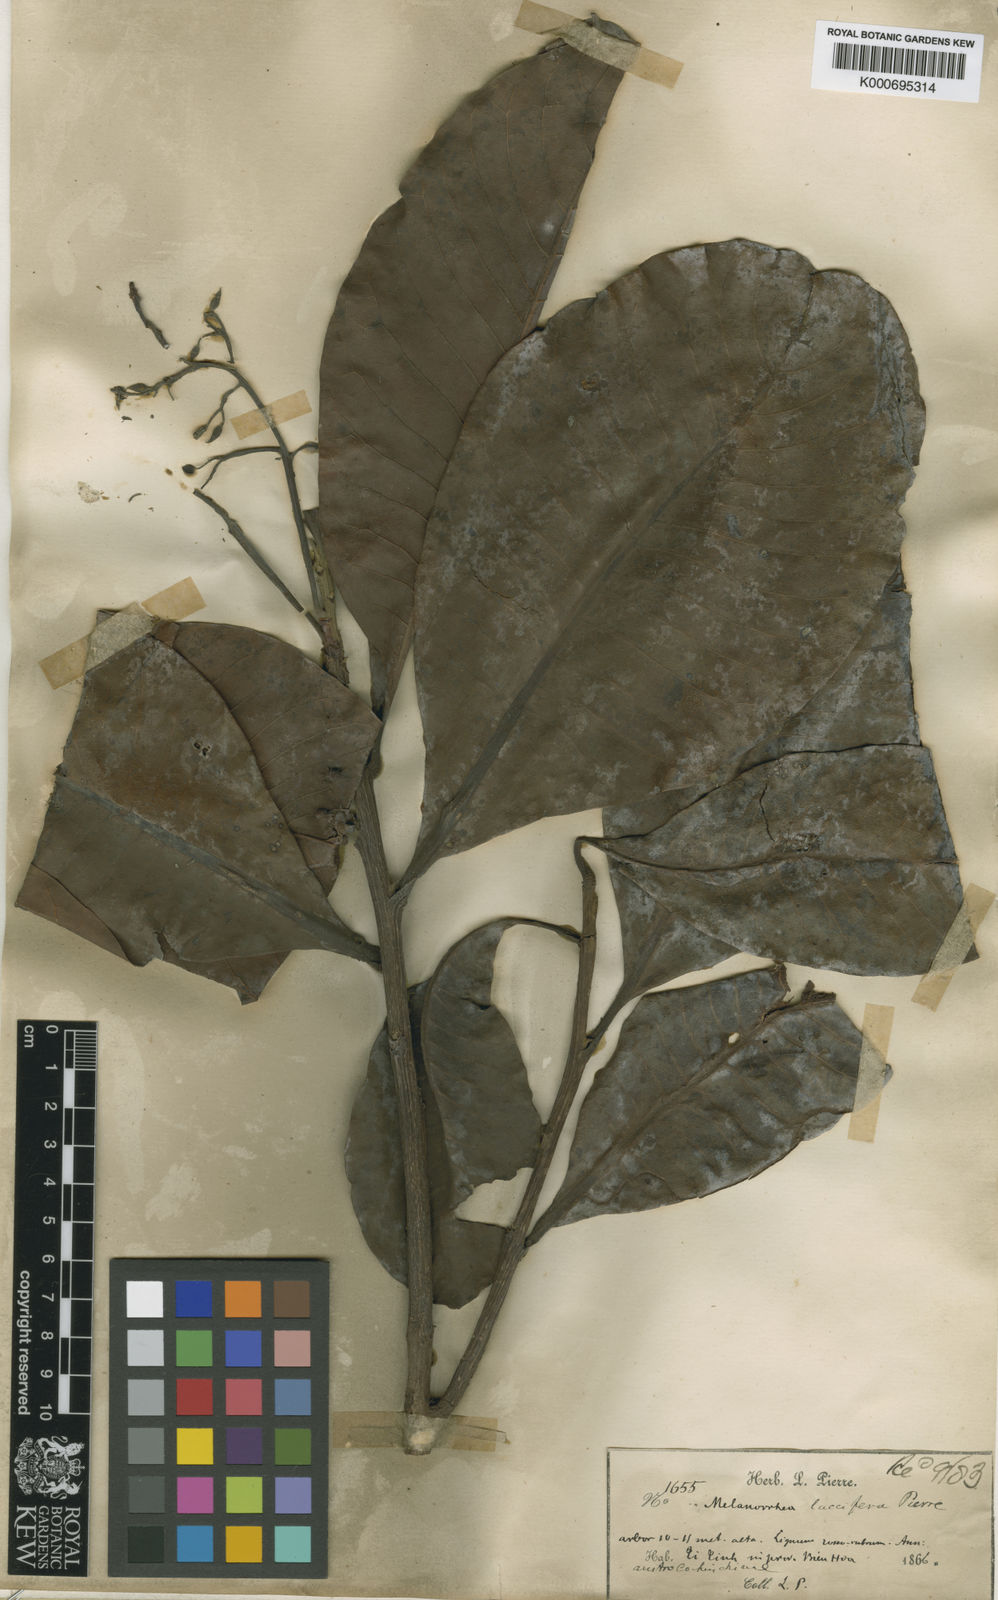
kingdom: Plantae
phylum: Tracheophyta
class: Magnoliopsida
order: Sapindales
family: Anacardiaceae
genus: Gluta
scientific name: Gluta laccifera
